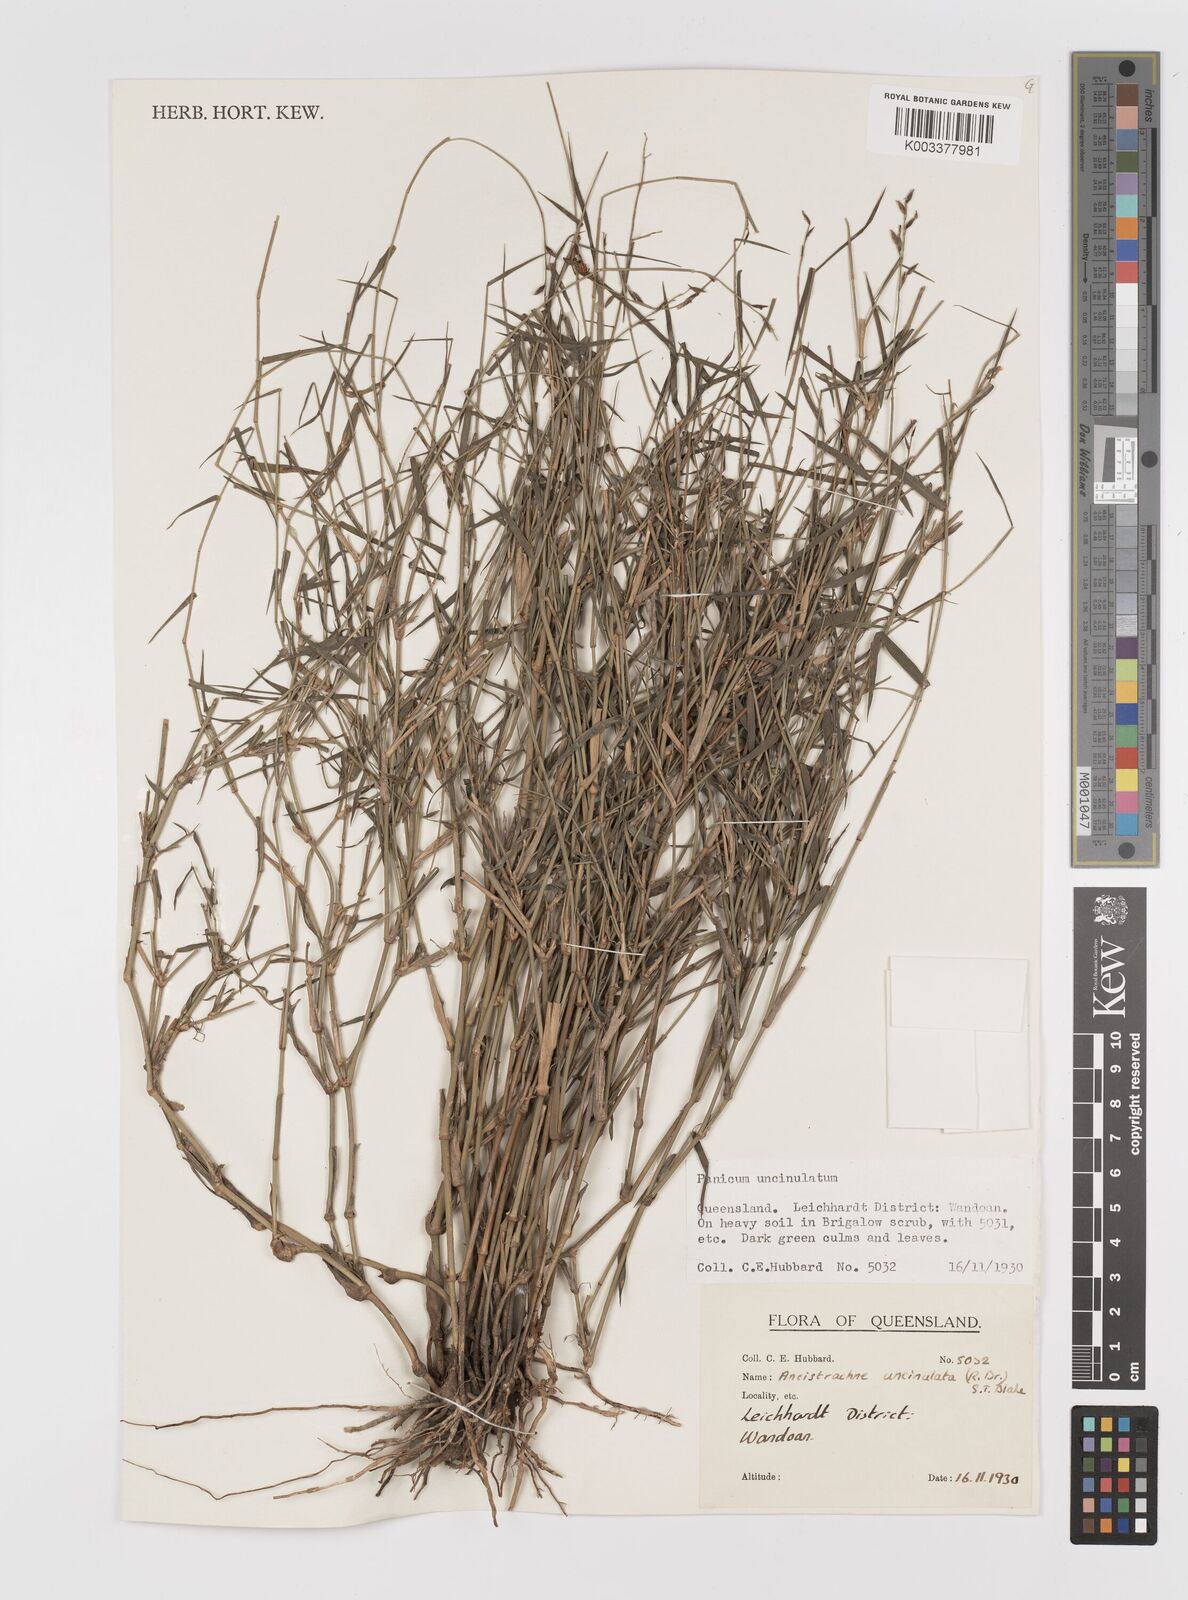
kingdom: Plantae
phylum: Tracheophyta
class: Liliopsida
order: Poales
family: Poaceae
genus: Ancistrachne
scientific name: Ancistrachne uncinulata
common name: Hooky grass
